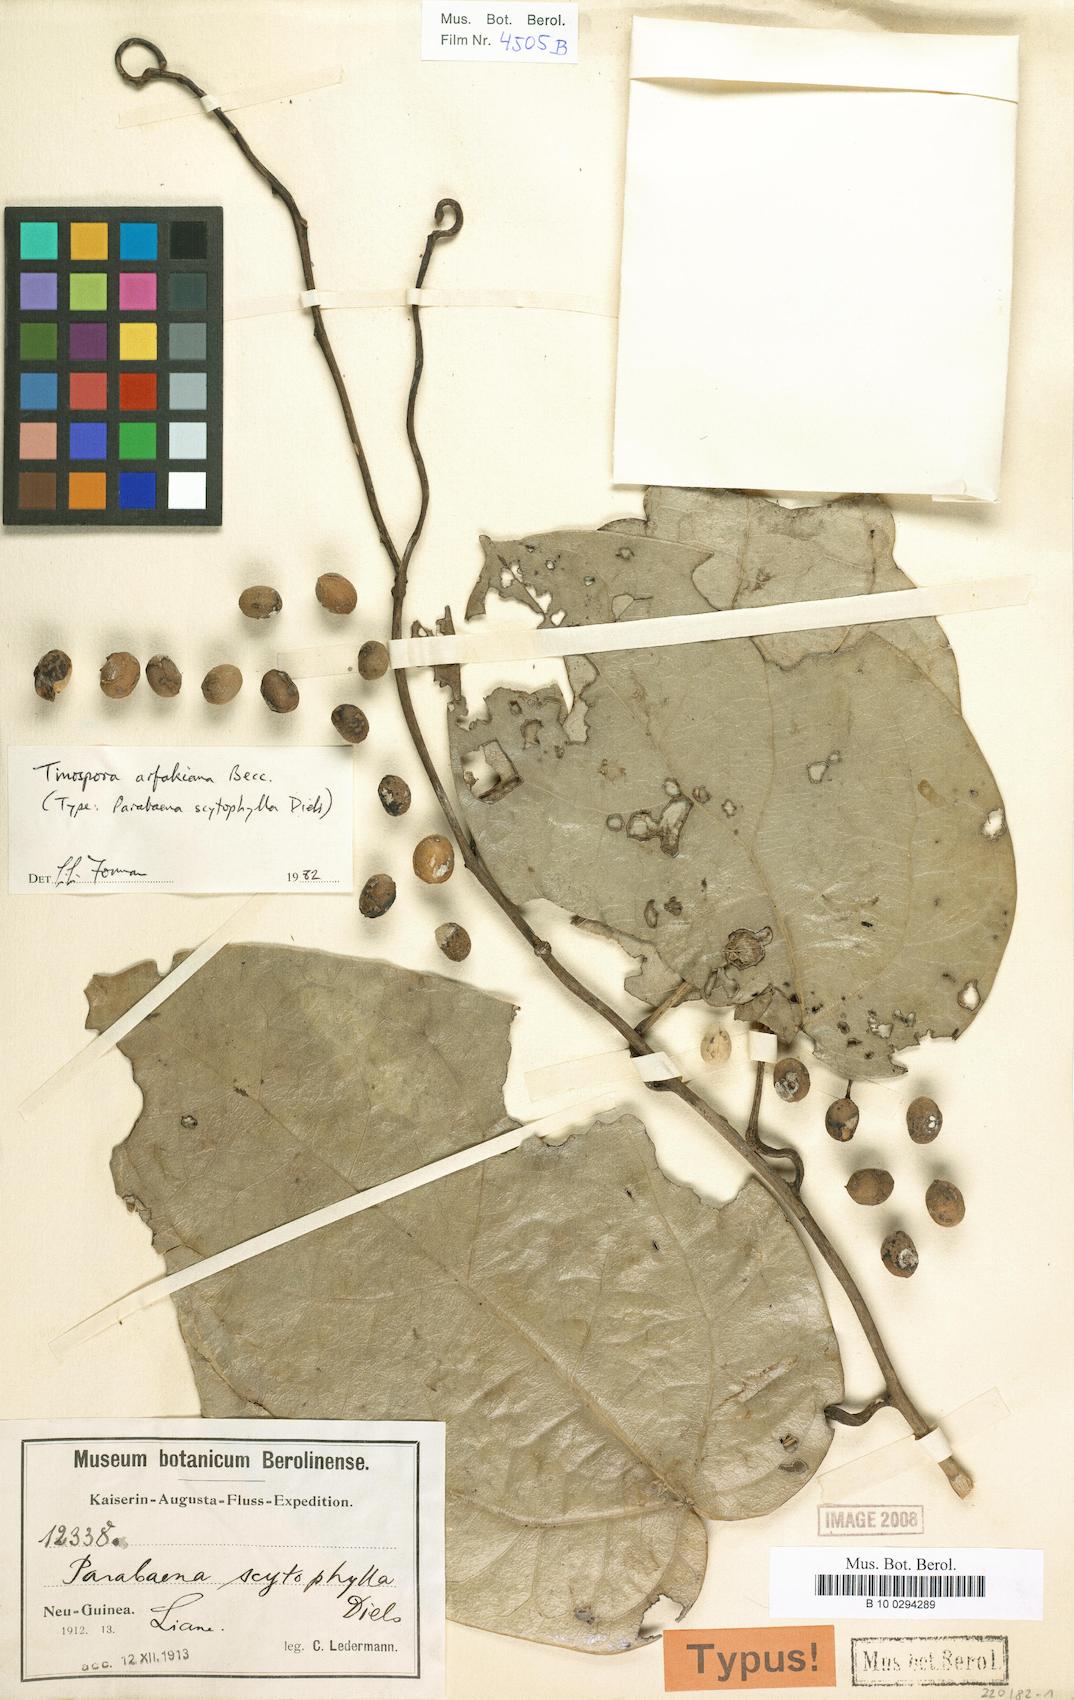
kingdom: Plantae
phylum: Tracheophyta
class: Magnoliopsida
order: Ranunculales
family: Menispermaceae
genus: Tinospora
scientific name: Tinospora arfakiana
